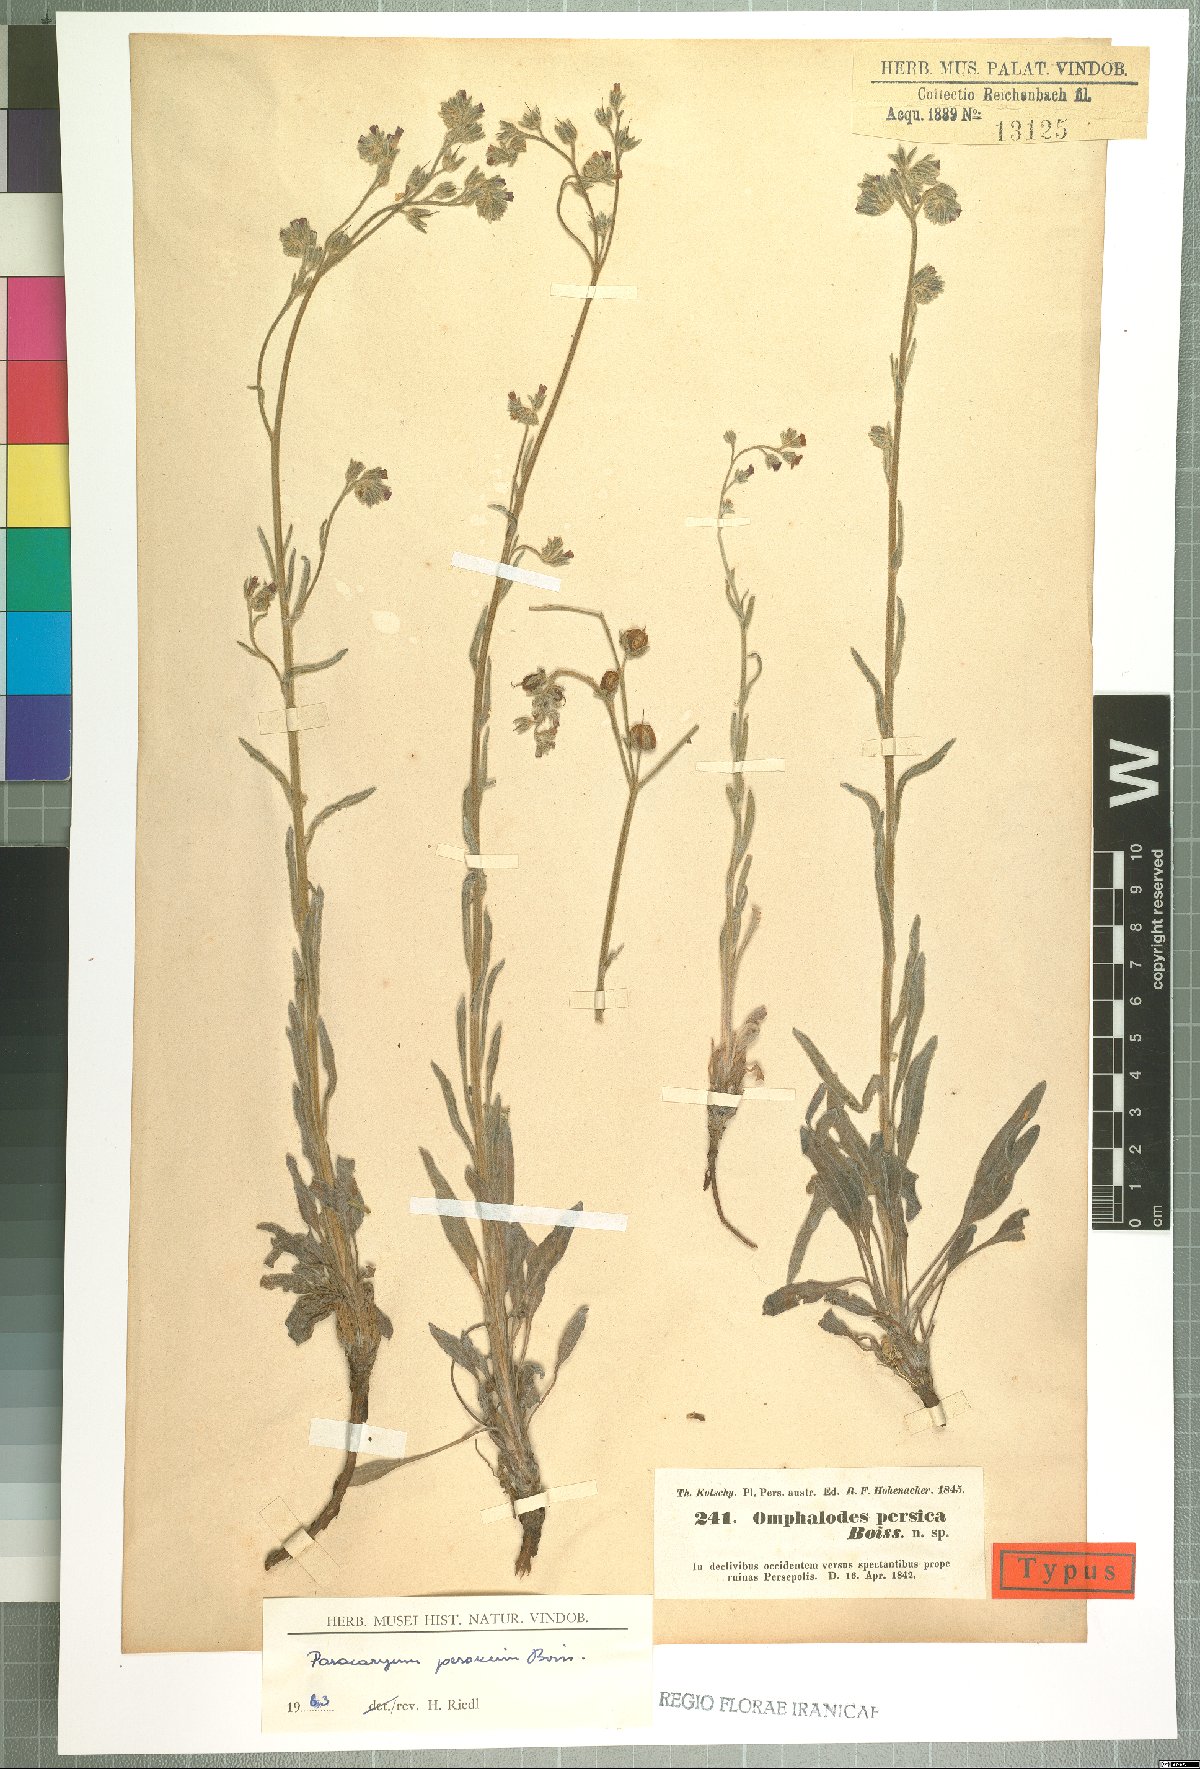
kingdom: Plantae
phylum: Tracheophyta
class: Magnoliopsida
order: Boraginales
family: Boraginaceae
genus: Paracaryum
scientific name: Paracaryum persicum
